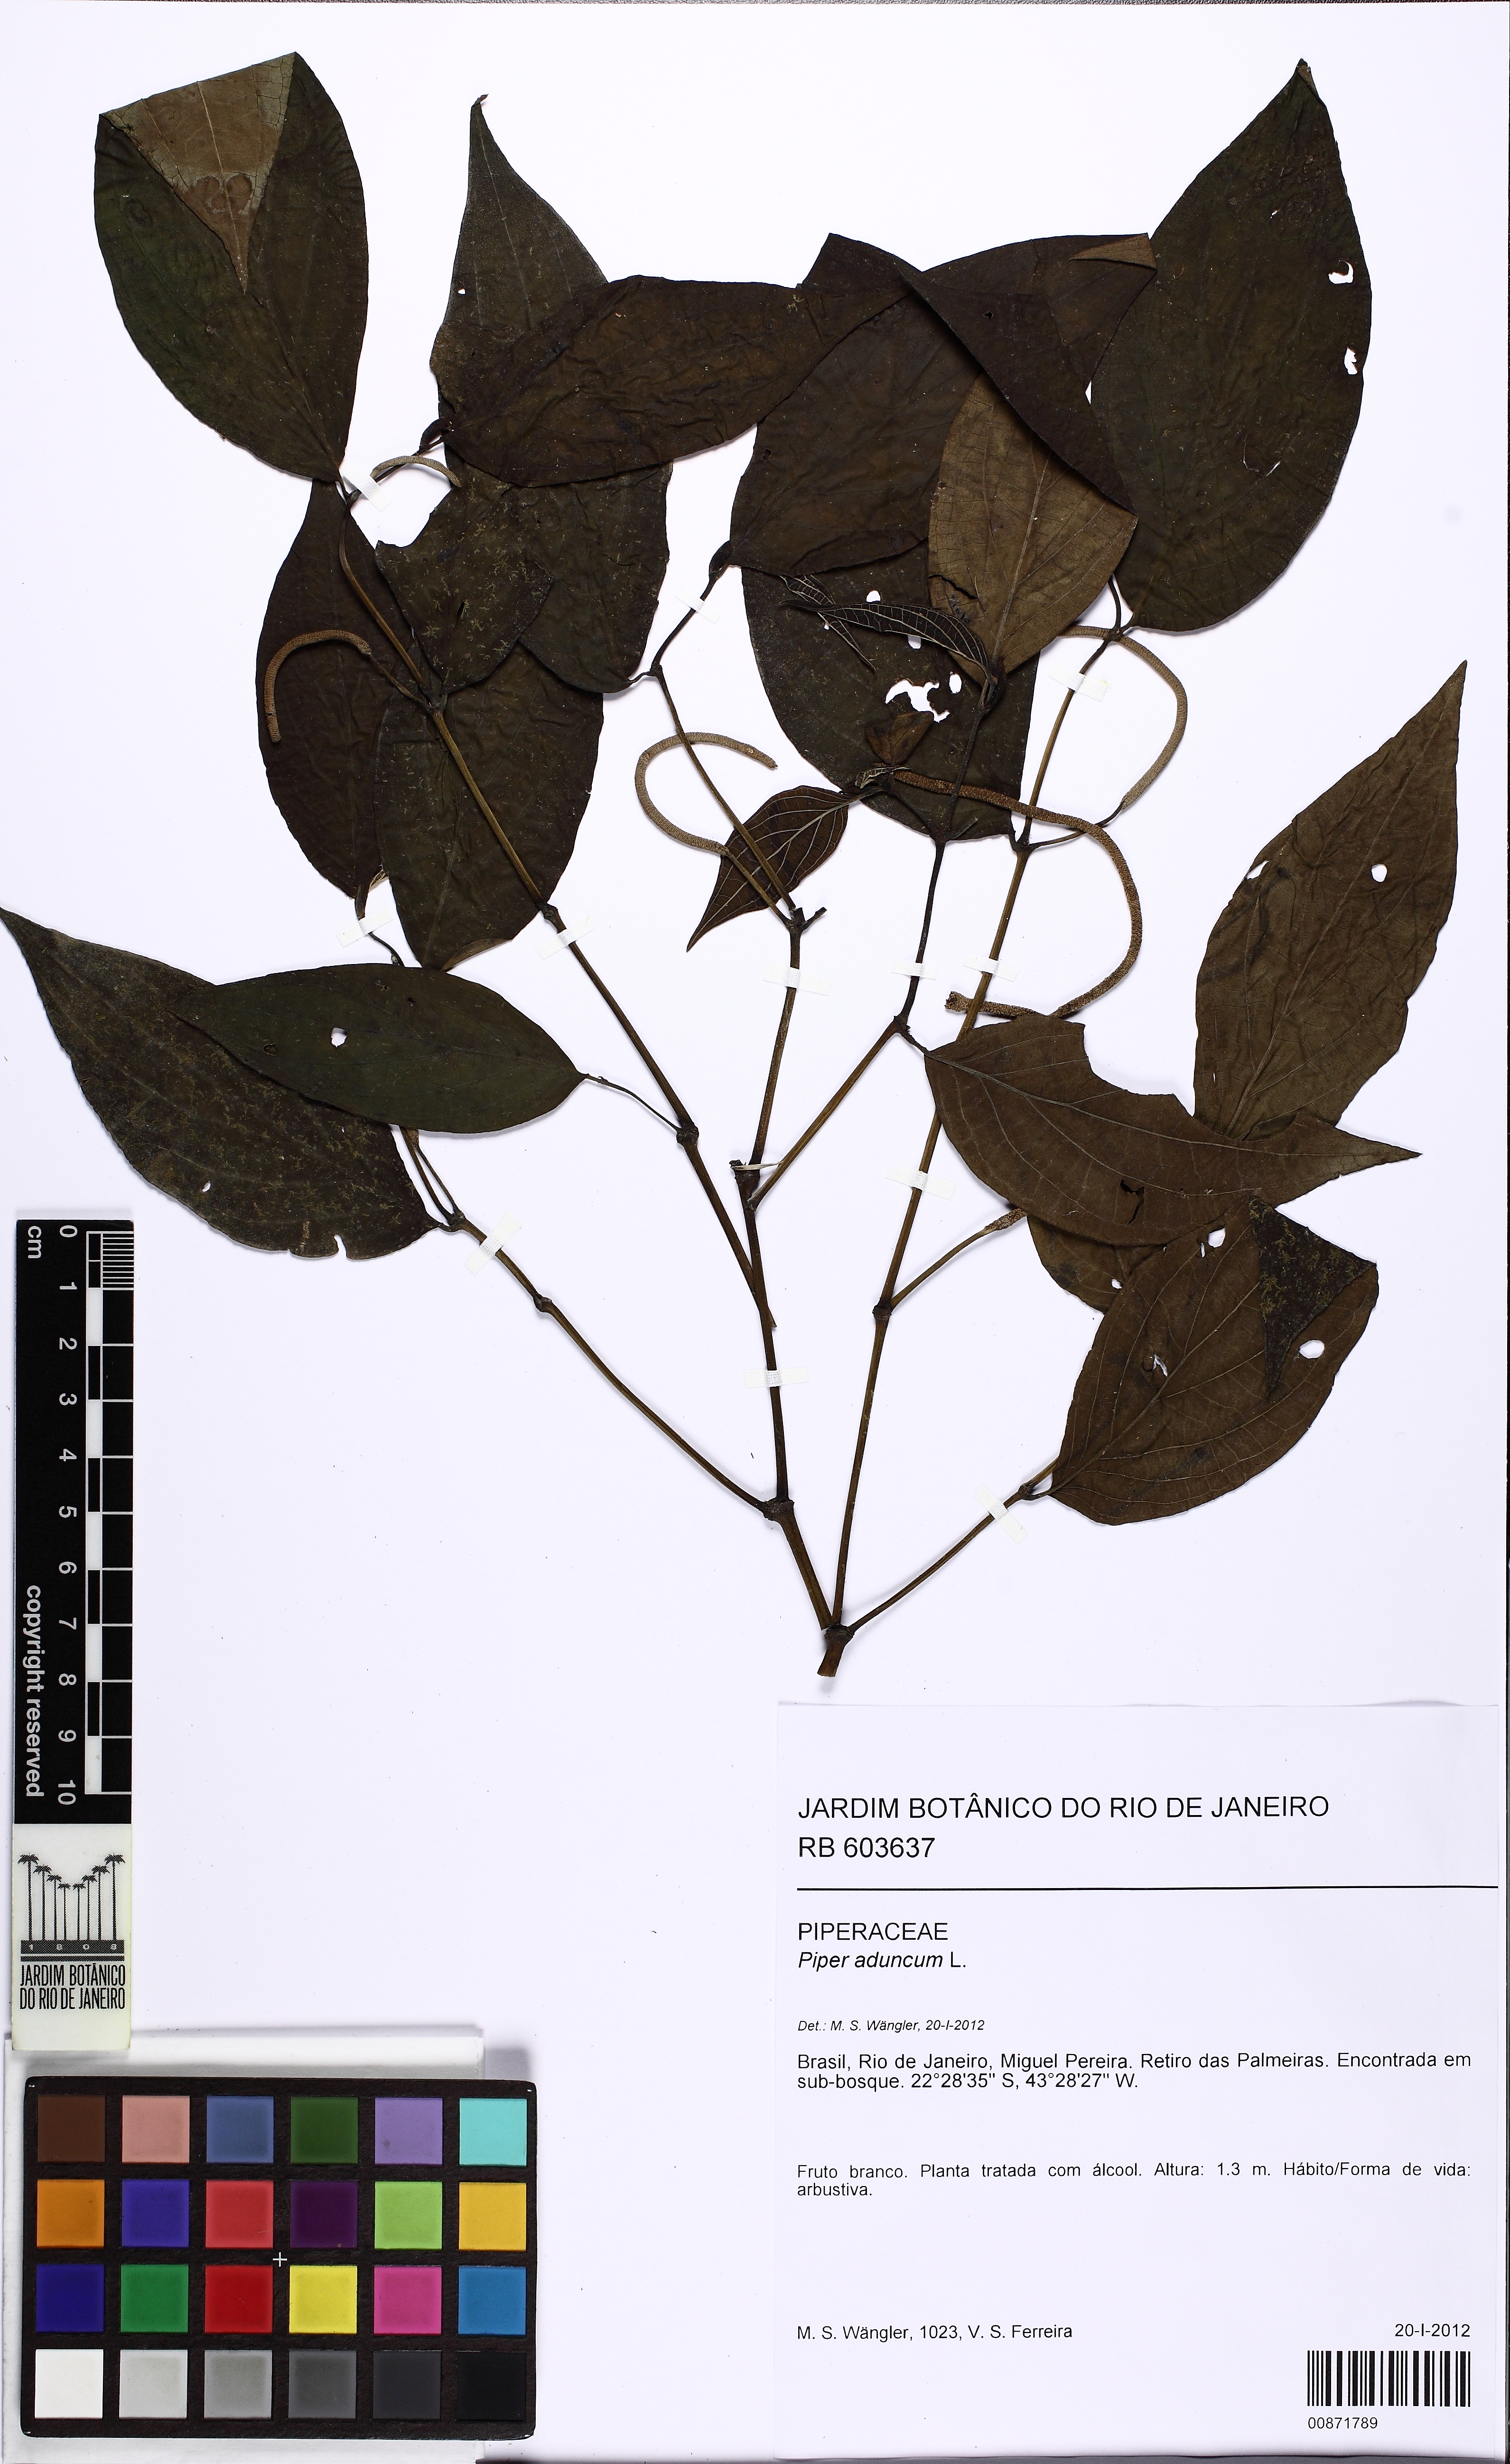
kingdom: Plantae
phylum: Tracheophyta
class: Magnoliopsida
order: Piperales
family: Piperaceae
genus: Piper
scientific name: Piper aduncum
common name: Spiked pepper
